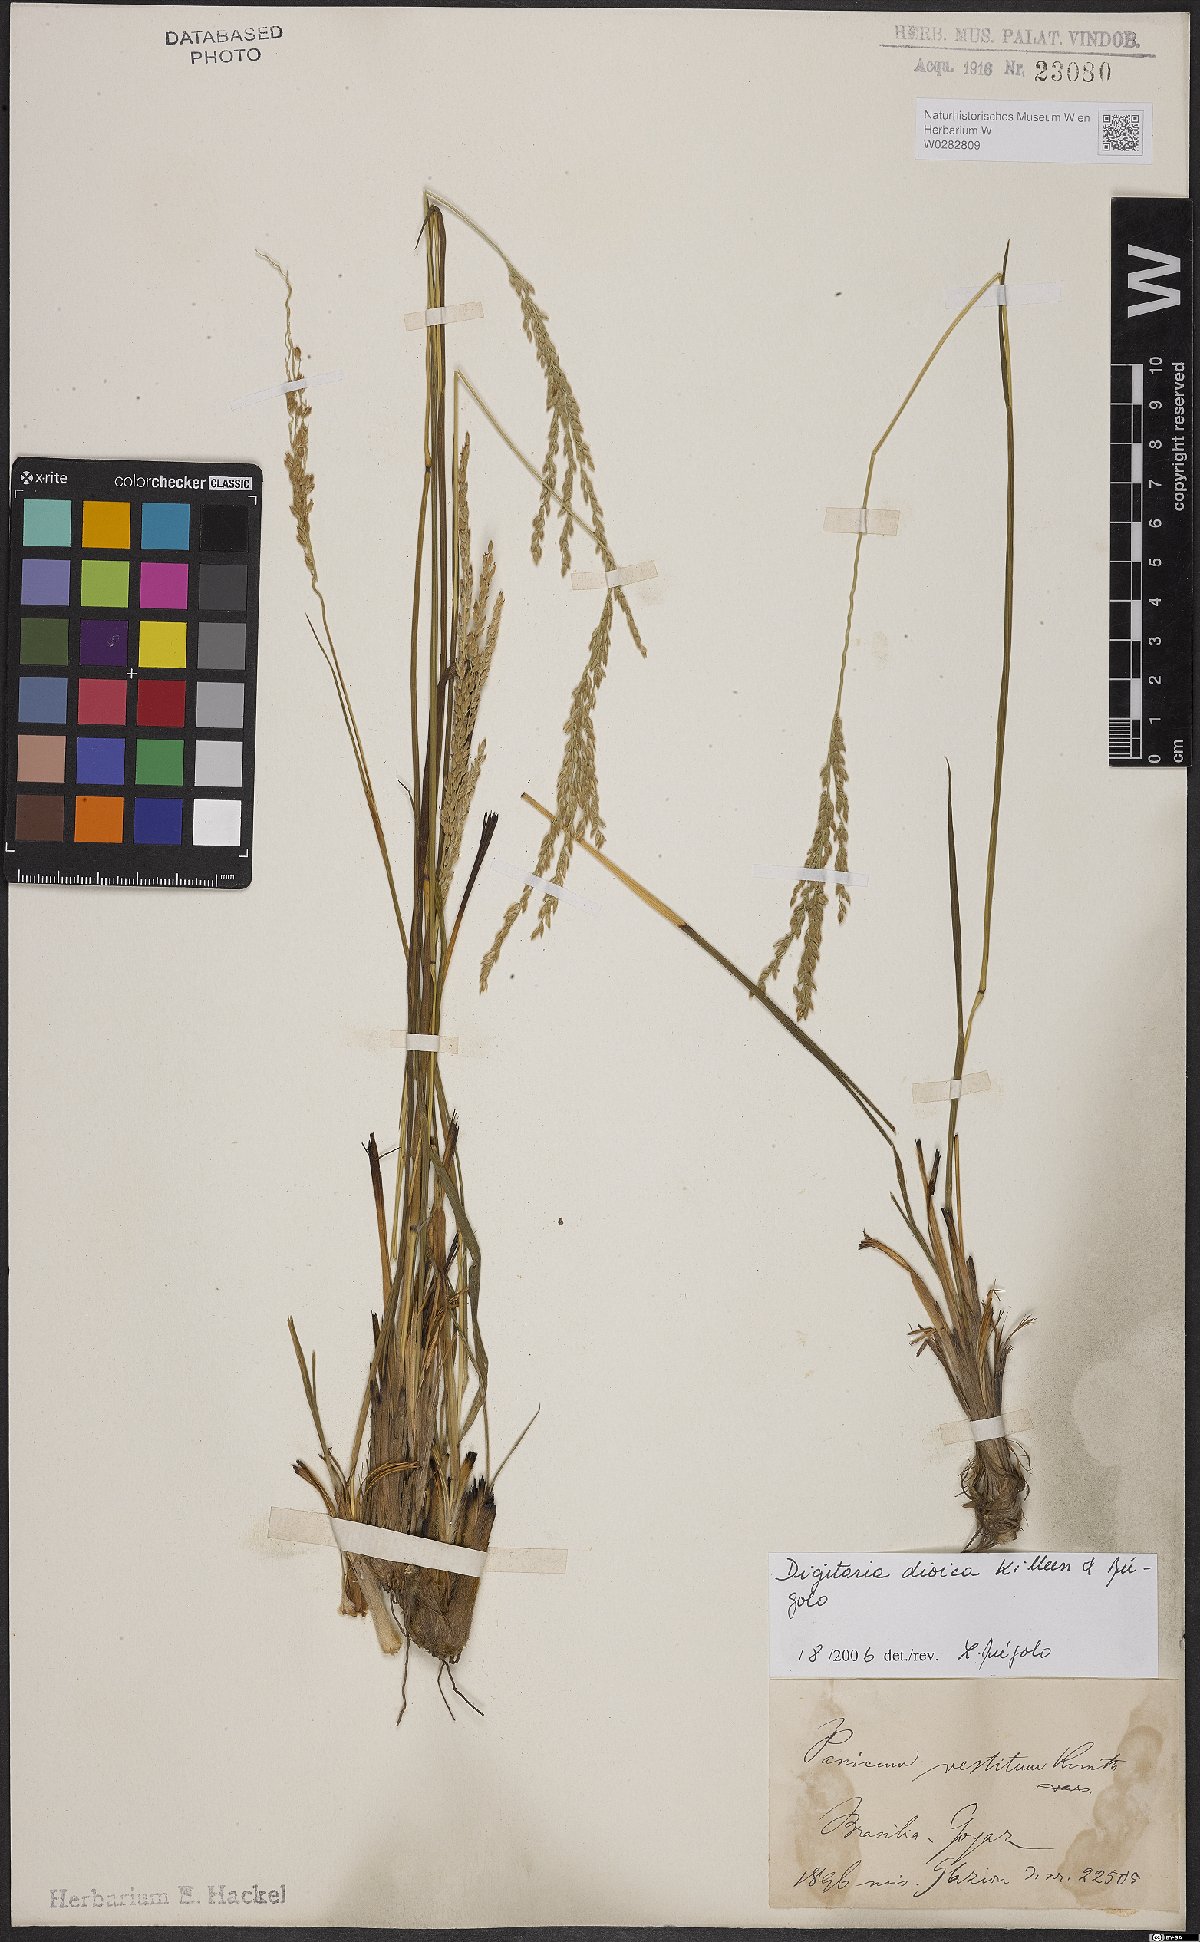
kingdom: Plantae
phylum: Tracheophyta
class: Liliopsida
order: Poales
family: Poaceae
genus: Digitaria
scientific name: Digitaria dioica
